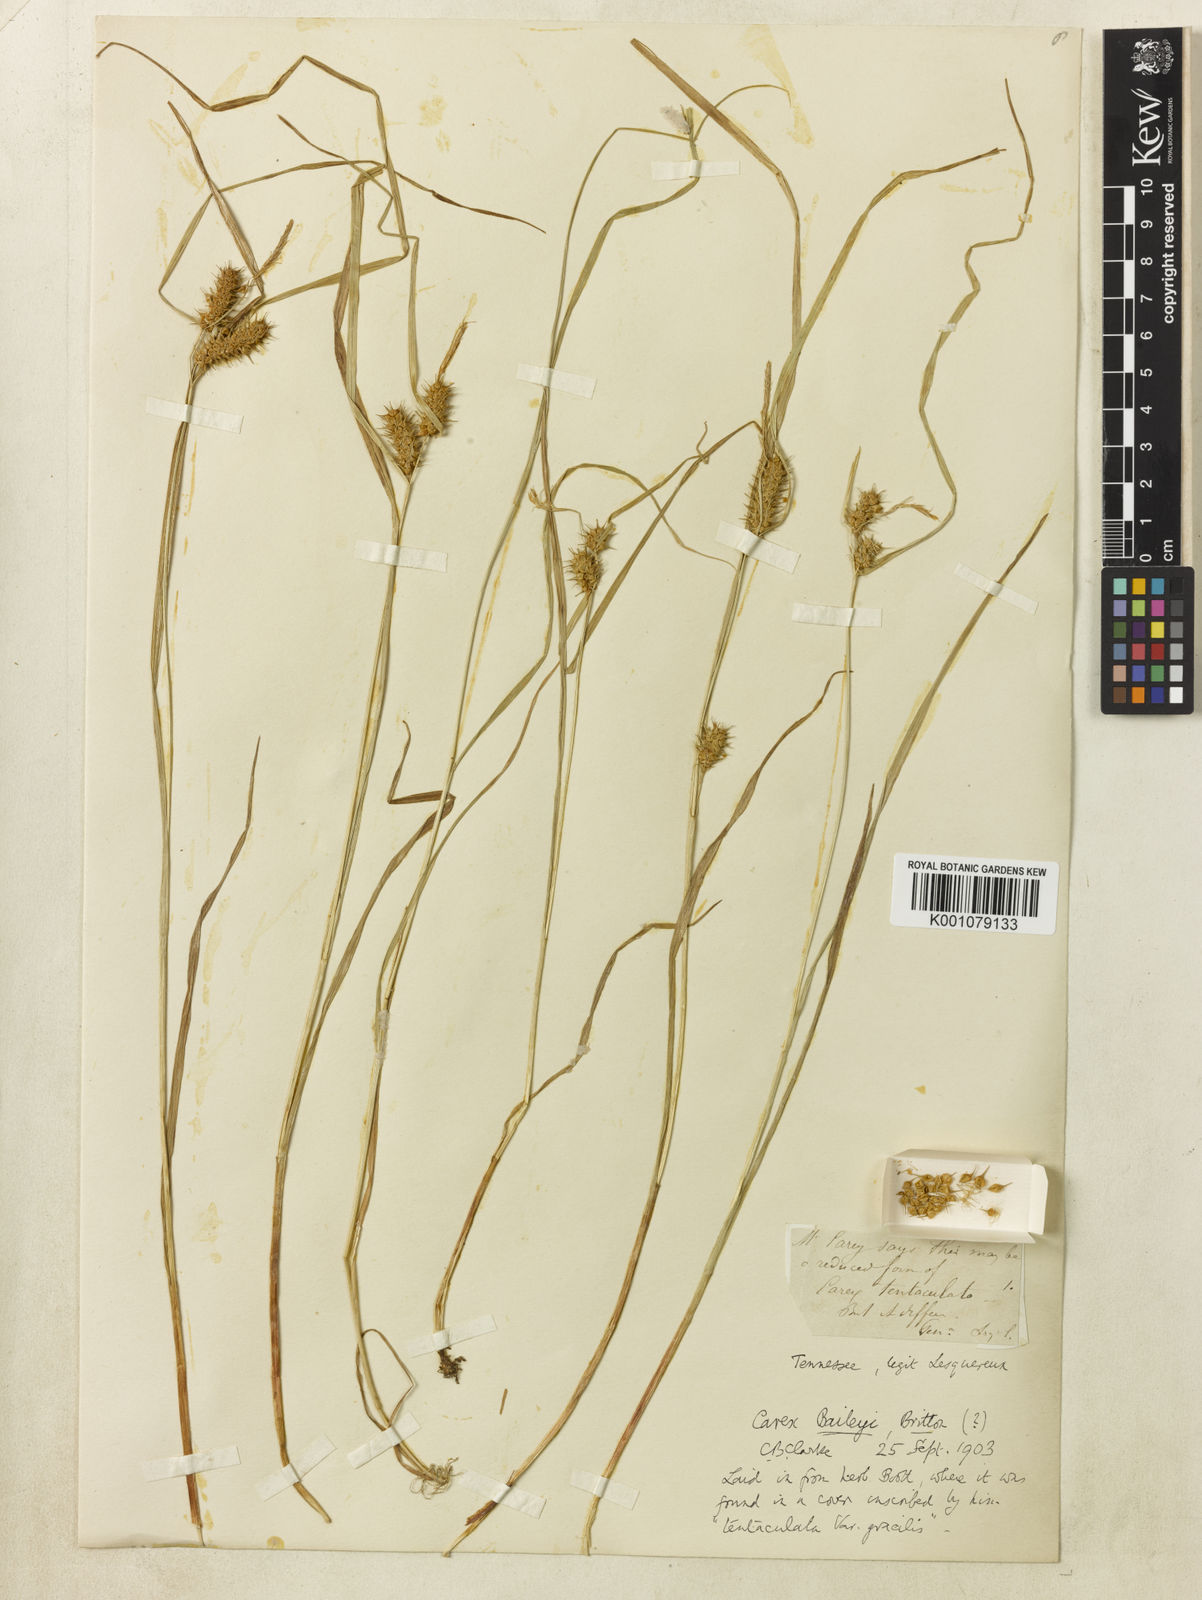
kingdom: Plantae
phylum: Tracheophyta
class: Liliopsida
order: Poales
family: Cyperaceae
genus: Carex
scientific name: Carex baileyi
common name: Bailey's sedge
